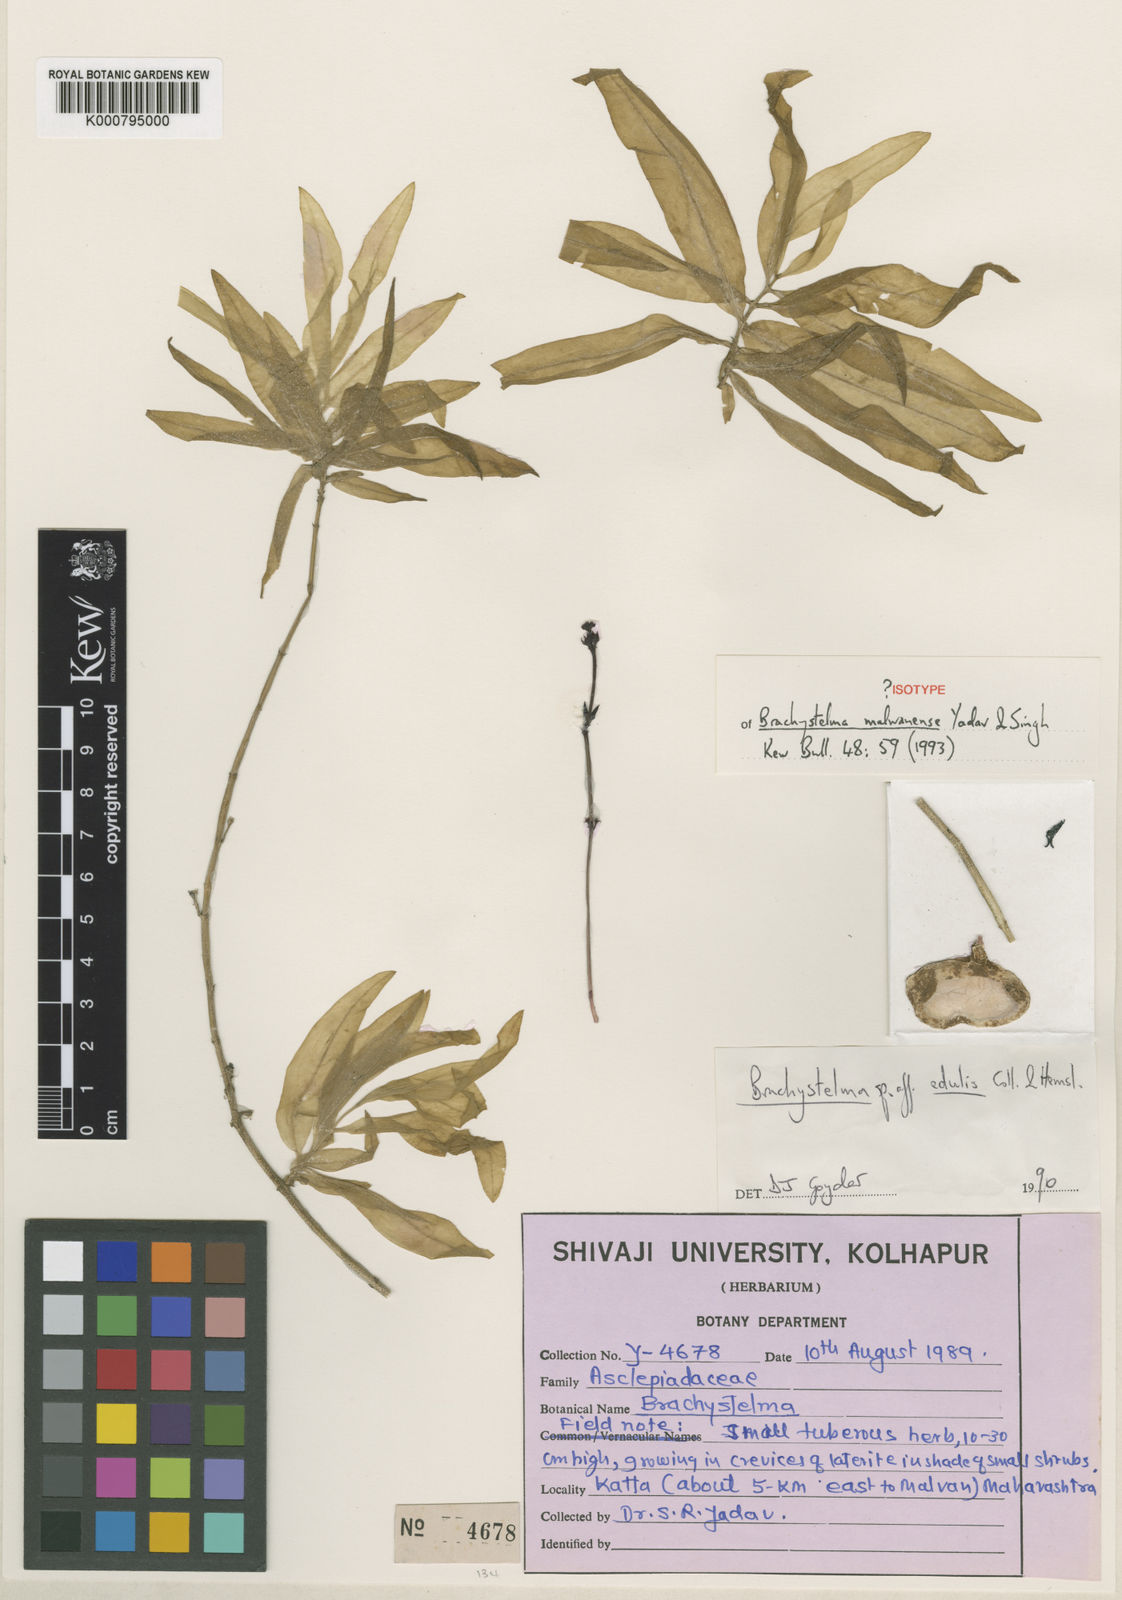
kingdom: Plantae
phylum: Tracheophyta
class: Magnoliopsida
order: Gentianales
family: Apocynaceae
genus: Ceropegia
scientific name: Ceropegia kolarensis
